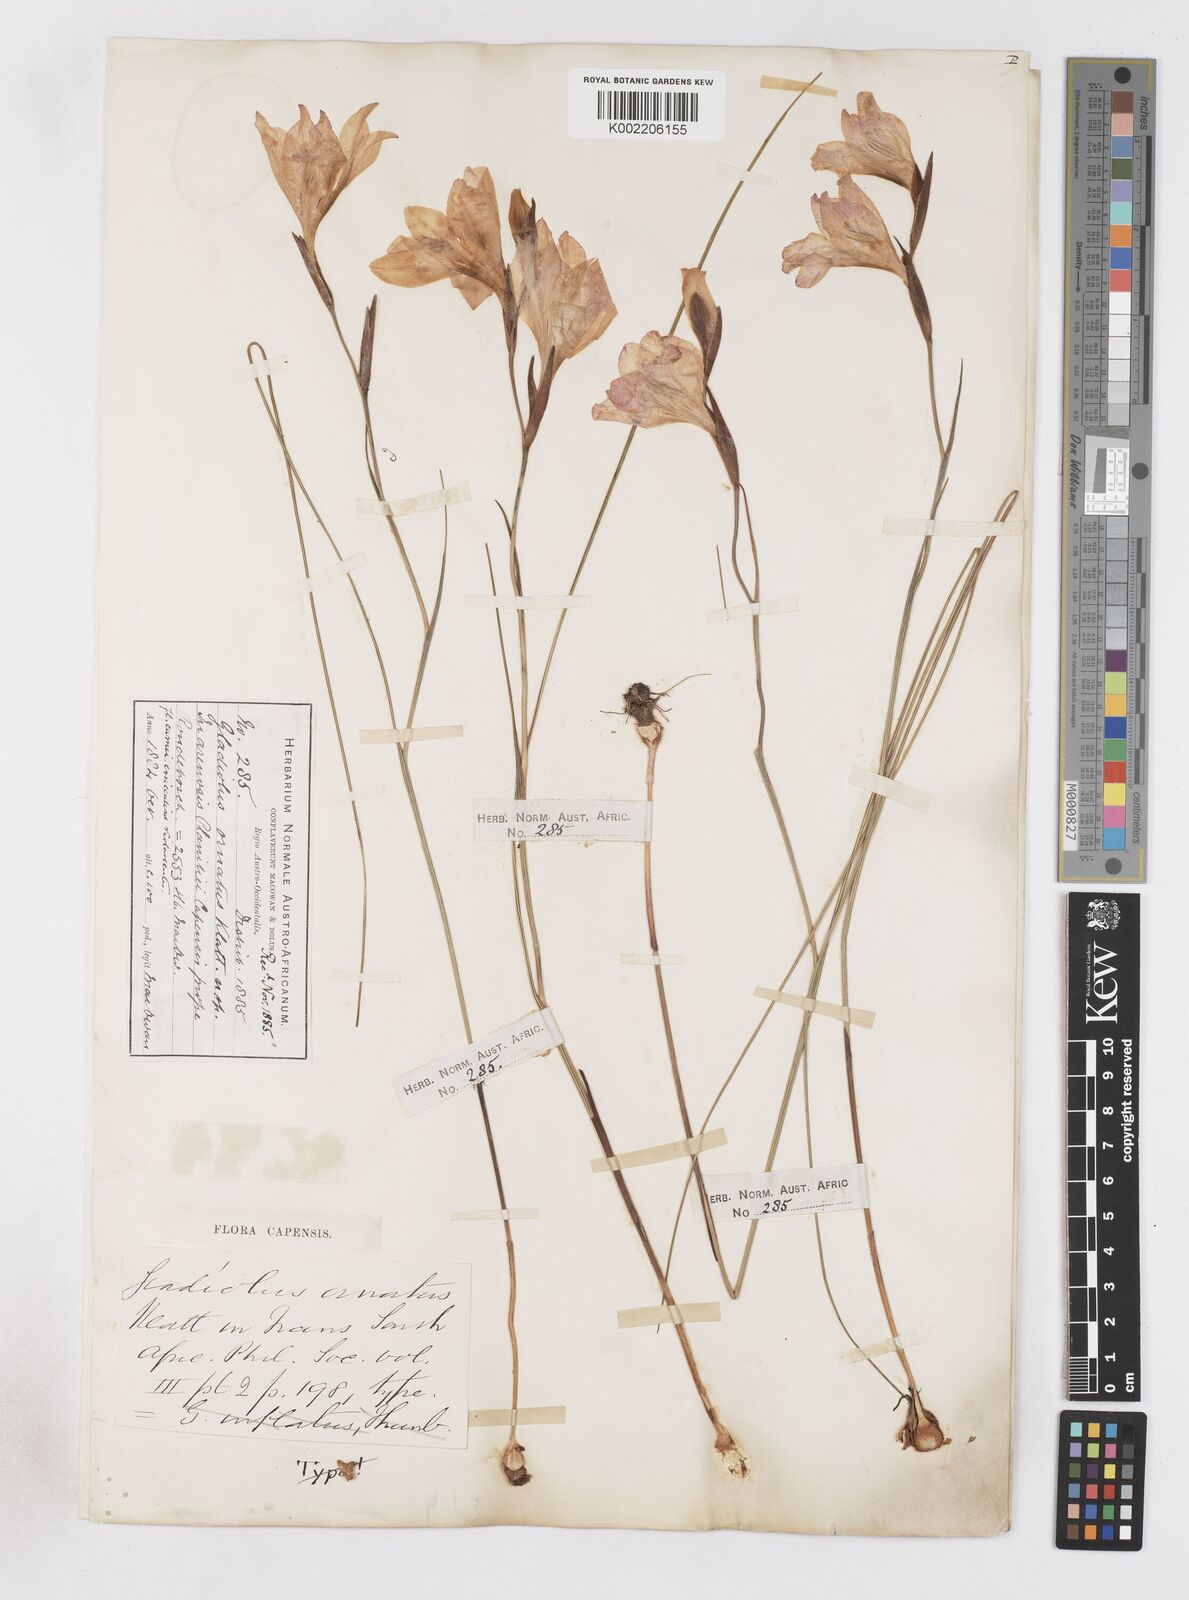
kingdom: Plantae
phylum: Tracheophyta
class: Liliopsida
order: Asparagales
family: Iridaceae
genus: Gladiolus
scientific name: Gladiolus ornatus
